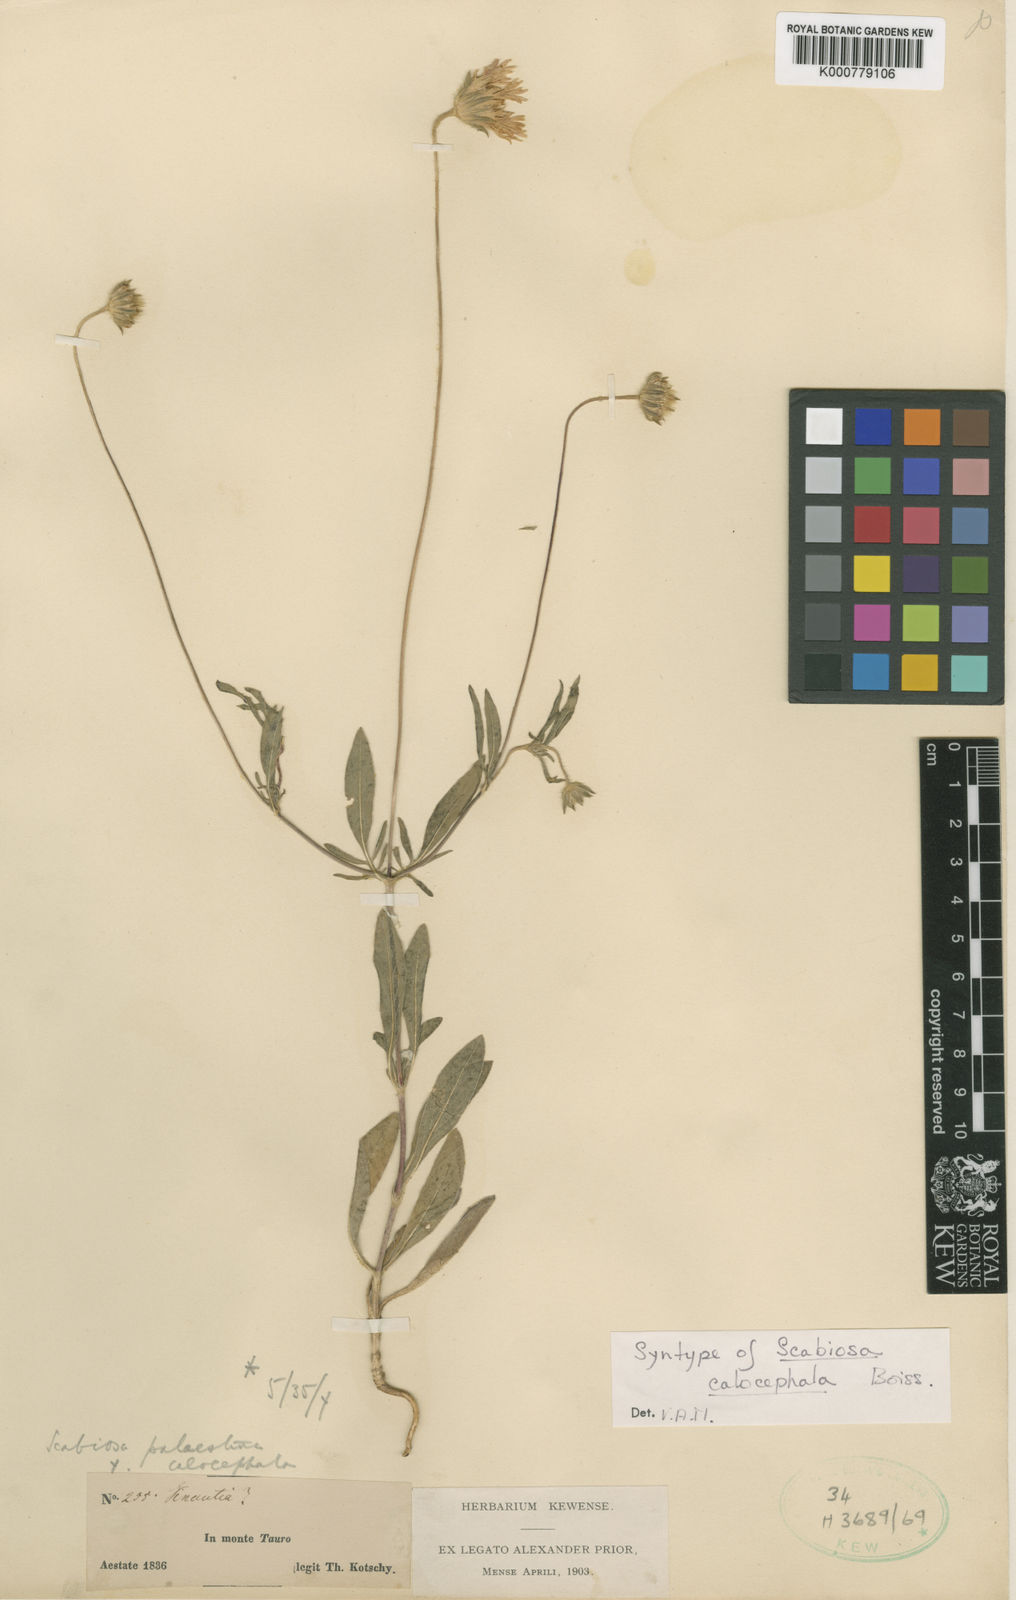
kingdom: Plantae
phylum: Tracheophyta
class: Magnoliopsida
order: Dipsacales
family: Caprifoliaceae
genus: Lomelosia
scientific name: Lomelosia palaestina
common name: Balkan pincushions
